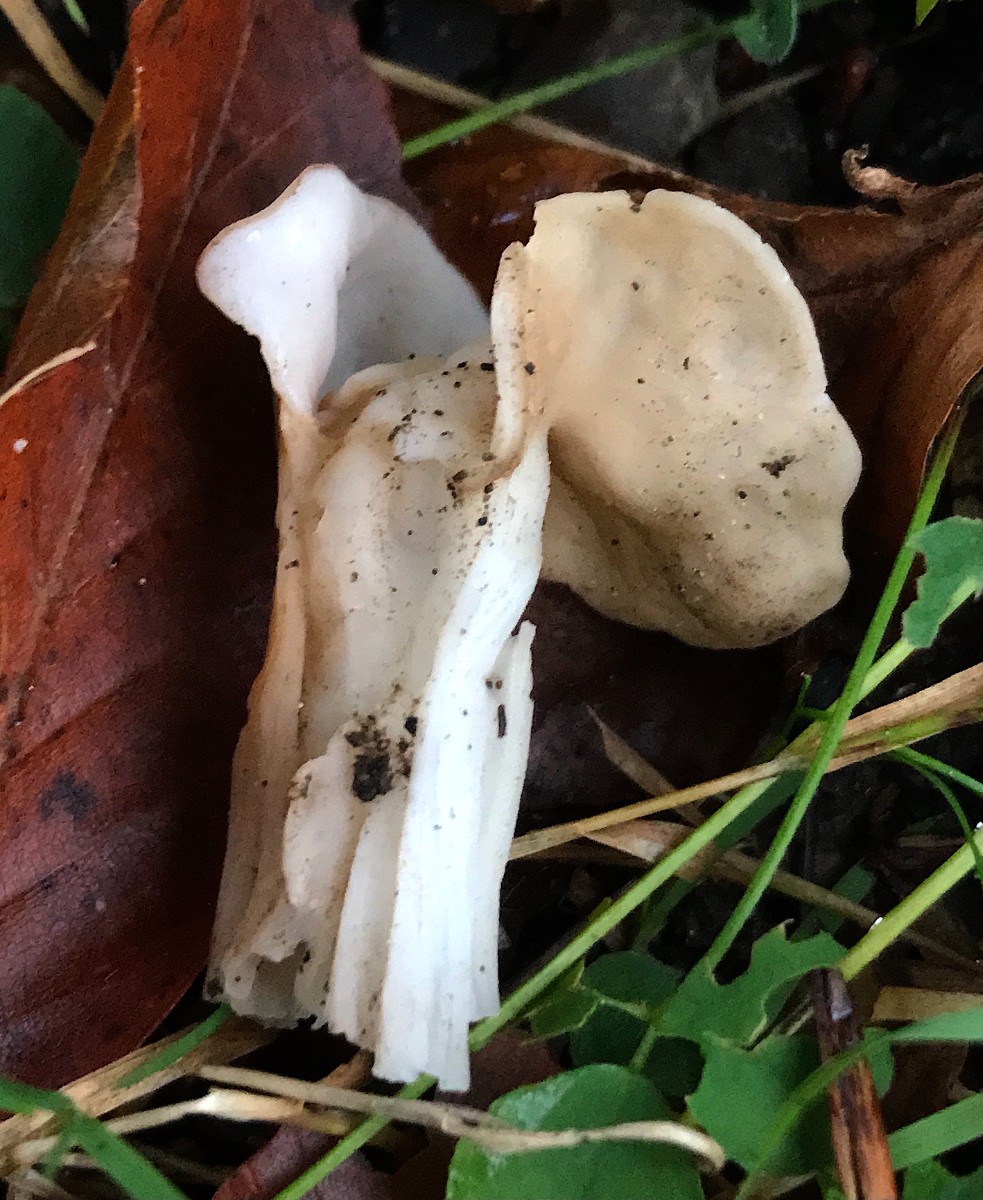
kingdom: Fungi
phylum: Ascomycota
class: Pezizomycetes
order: Pezizales
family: Helvellaceae
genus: Helvella
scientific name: Helvella crispa
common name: kruset foldhat
